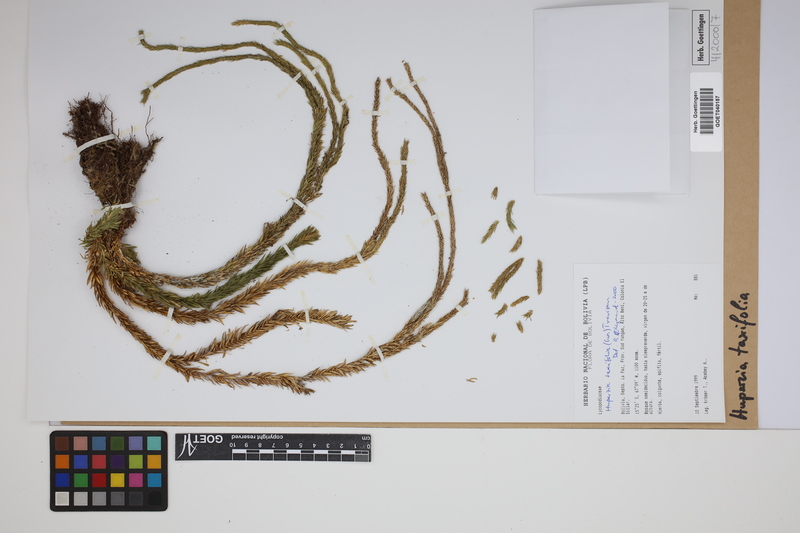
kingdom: Plantae
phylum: Tracheophyta
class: Lycopodiopsida
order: Lycopodiales
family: Lycopodiaceae
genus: Phlegmariurus
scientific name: Phlegmariurus taxifolius
